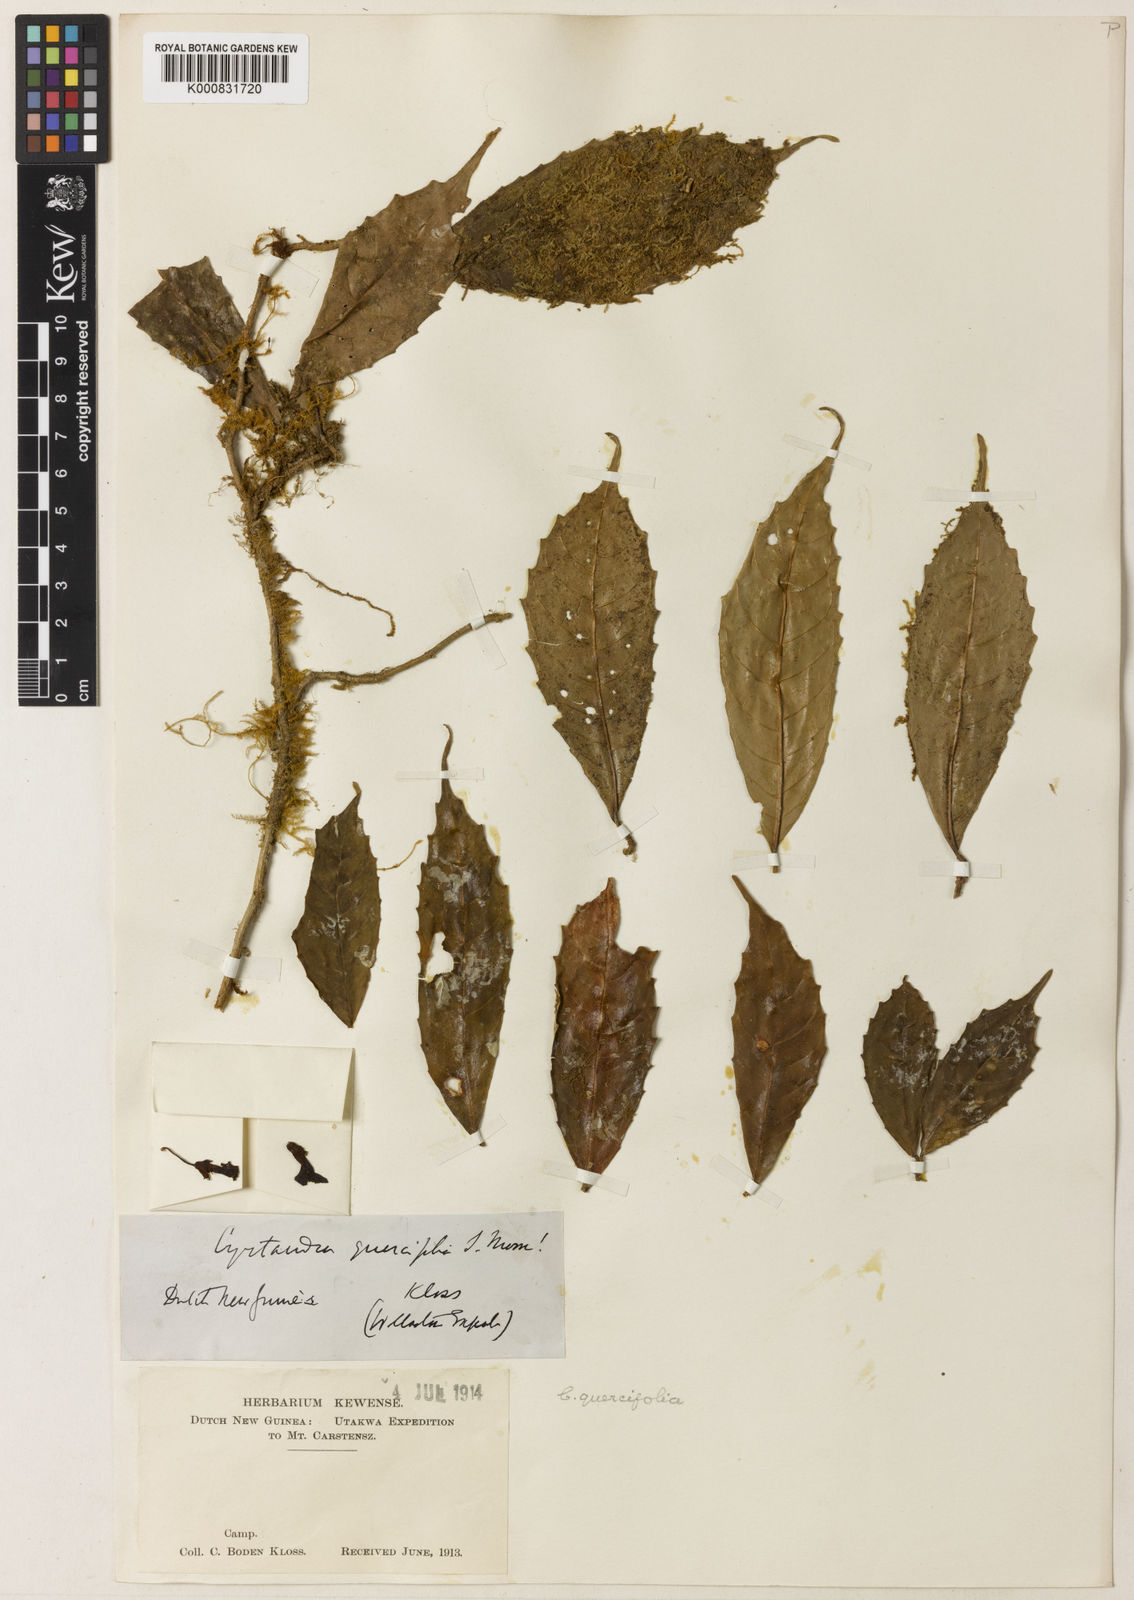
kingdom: Plantae
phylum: Tracheophyta
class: Magnoliopsida
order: Lamiales
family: Gesneriaceae
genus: Cyrtandra
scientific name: Cyrtandra quercifolia
